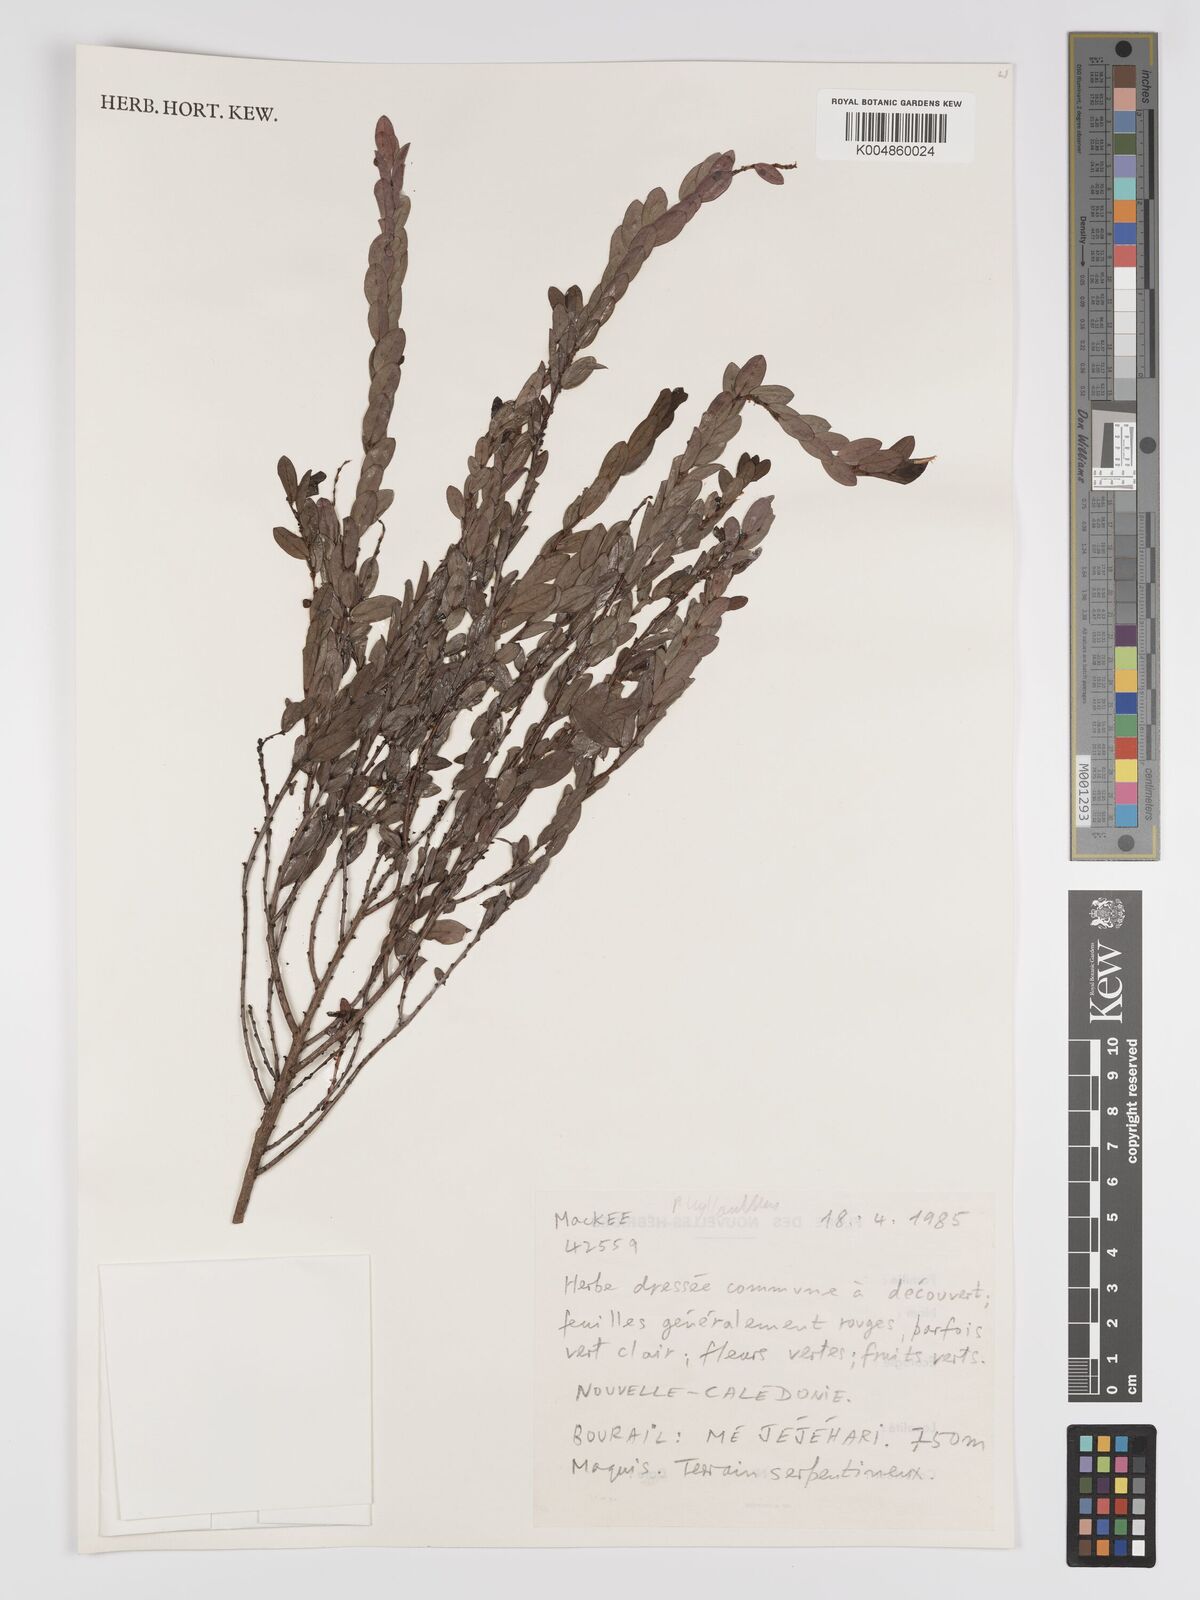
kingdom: Plantae
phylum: Tracheophyta
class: Magnoliopsida
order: Malpighiales
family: Phyllanthaceae
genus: Phyllanthus
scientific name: Phyllanthus
